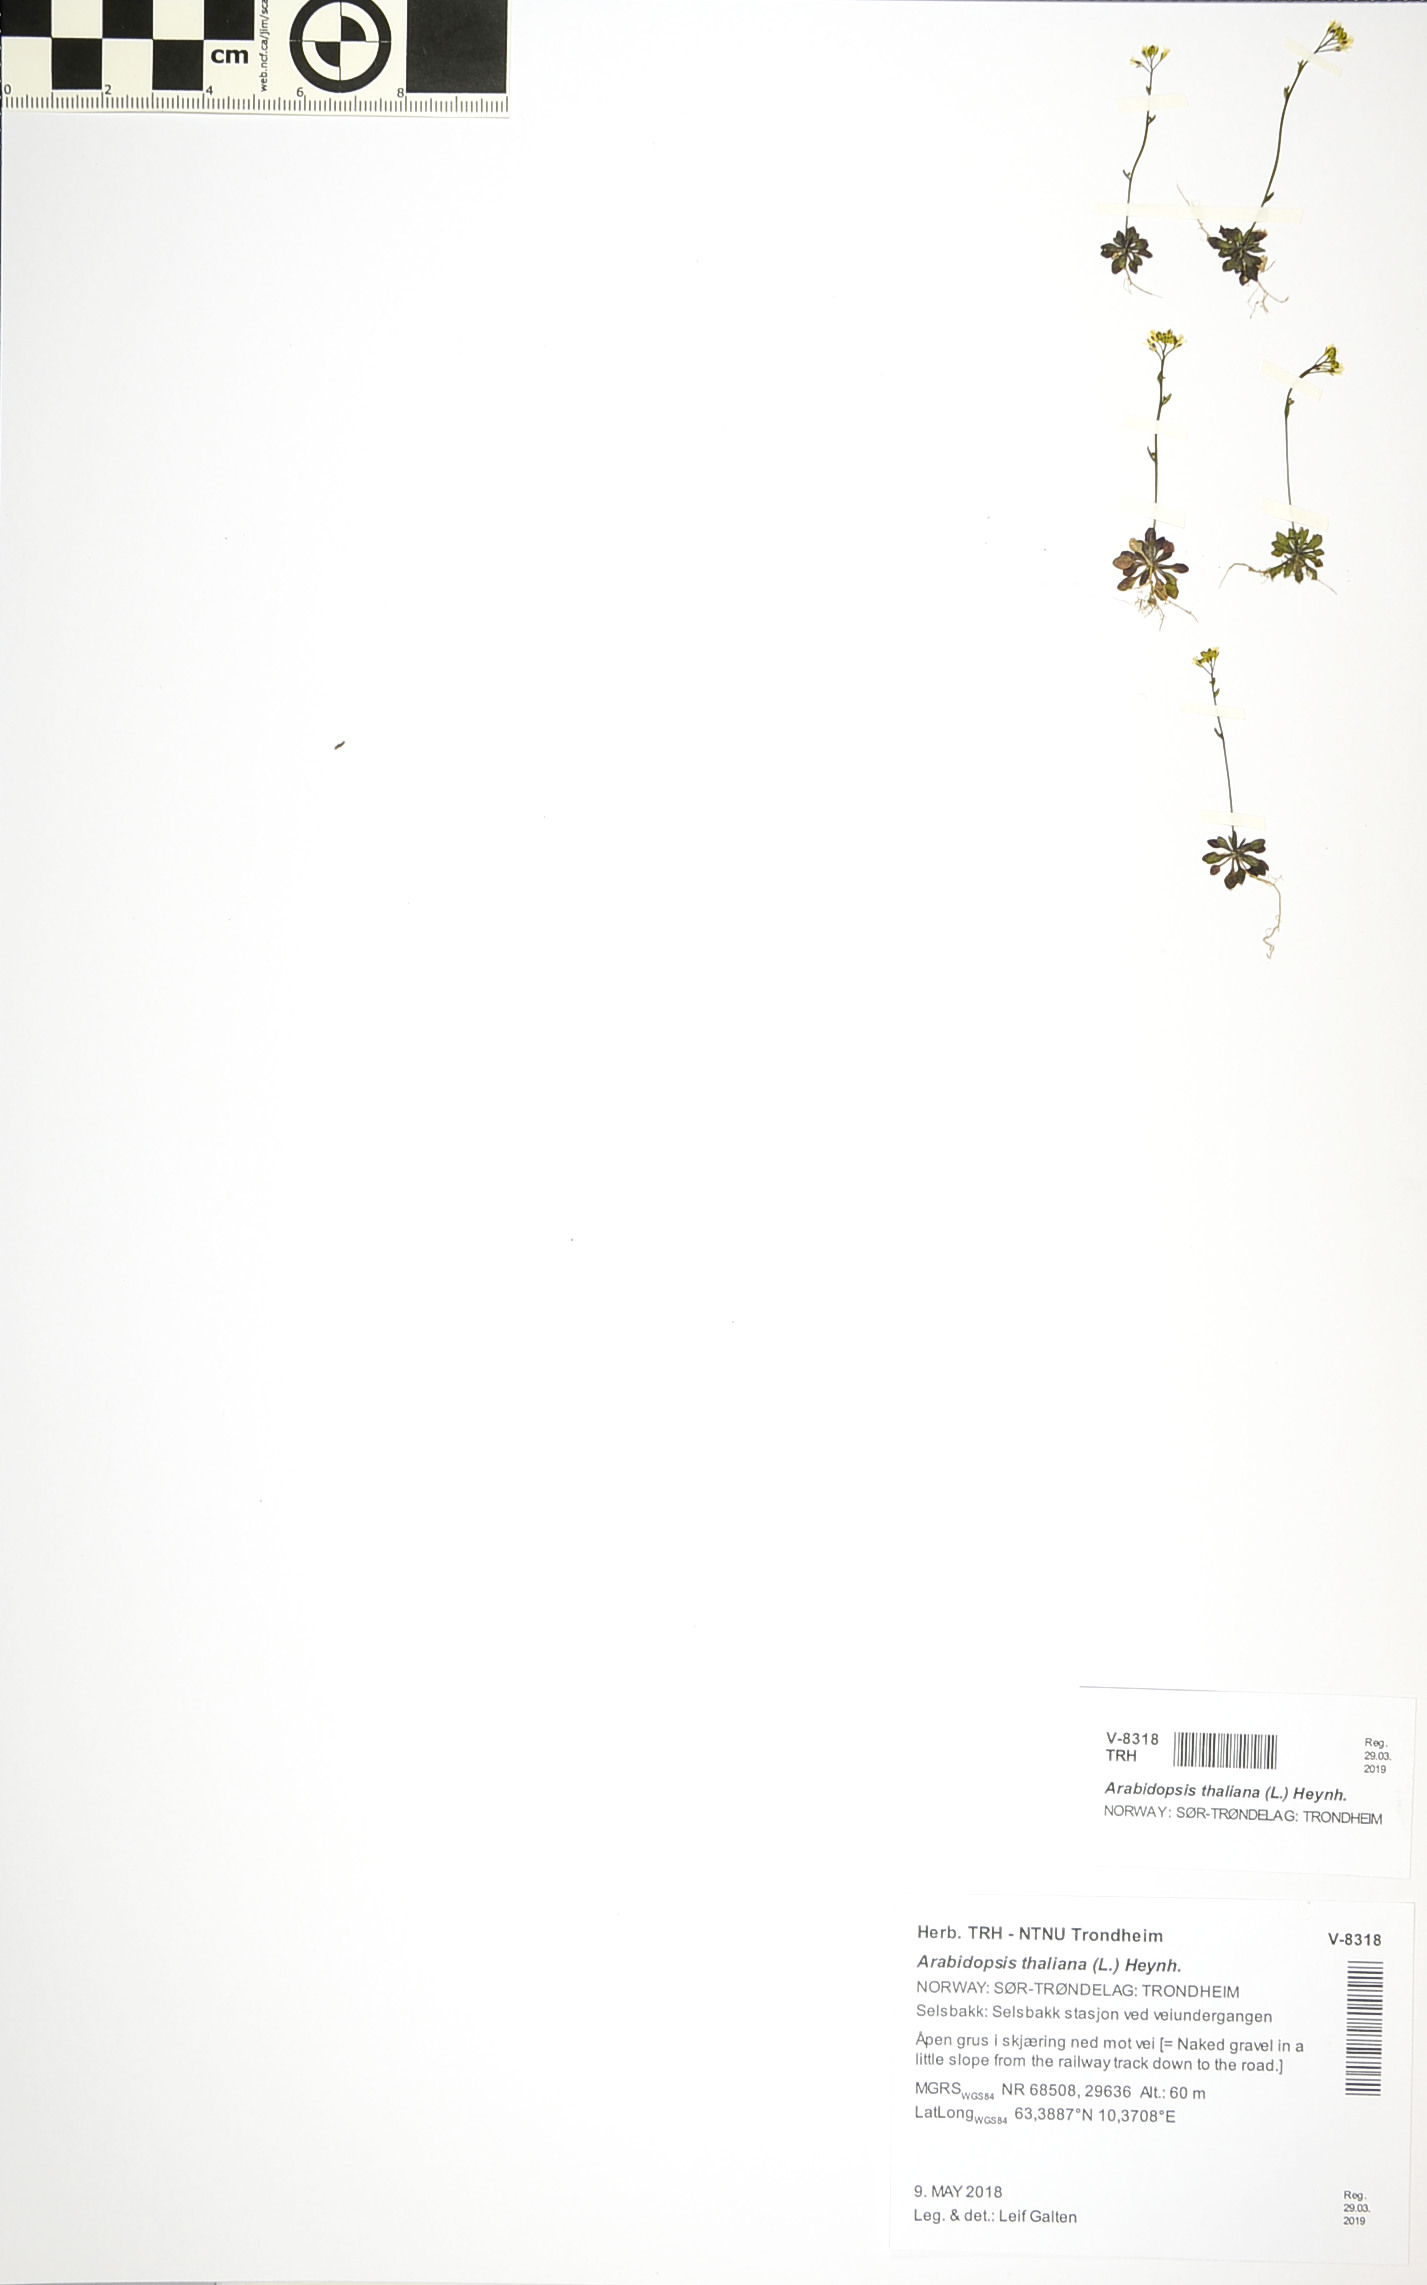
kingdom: Plantae
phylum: Tracheophyta
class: Magnoliopsida
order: Brassicales
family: Brassicaceae
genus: Arabidopsis
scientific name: Arabidopsis thaliana
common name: Thale cress
